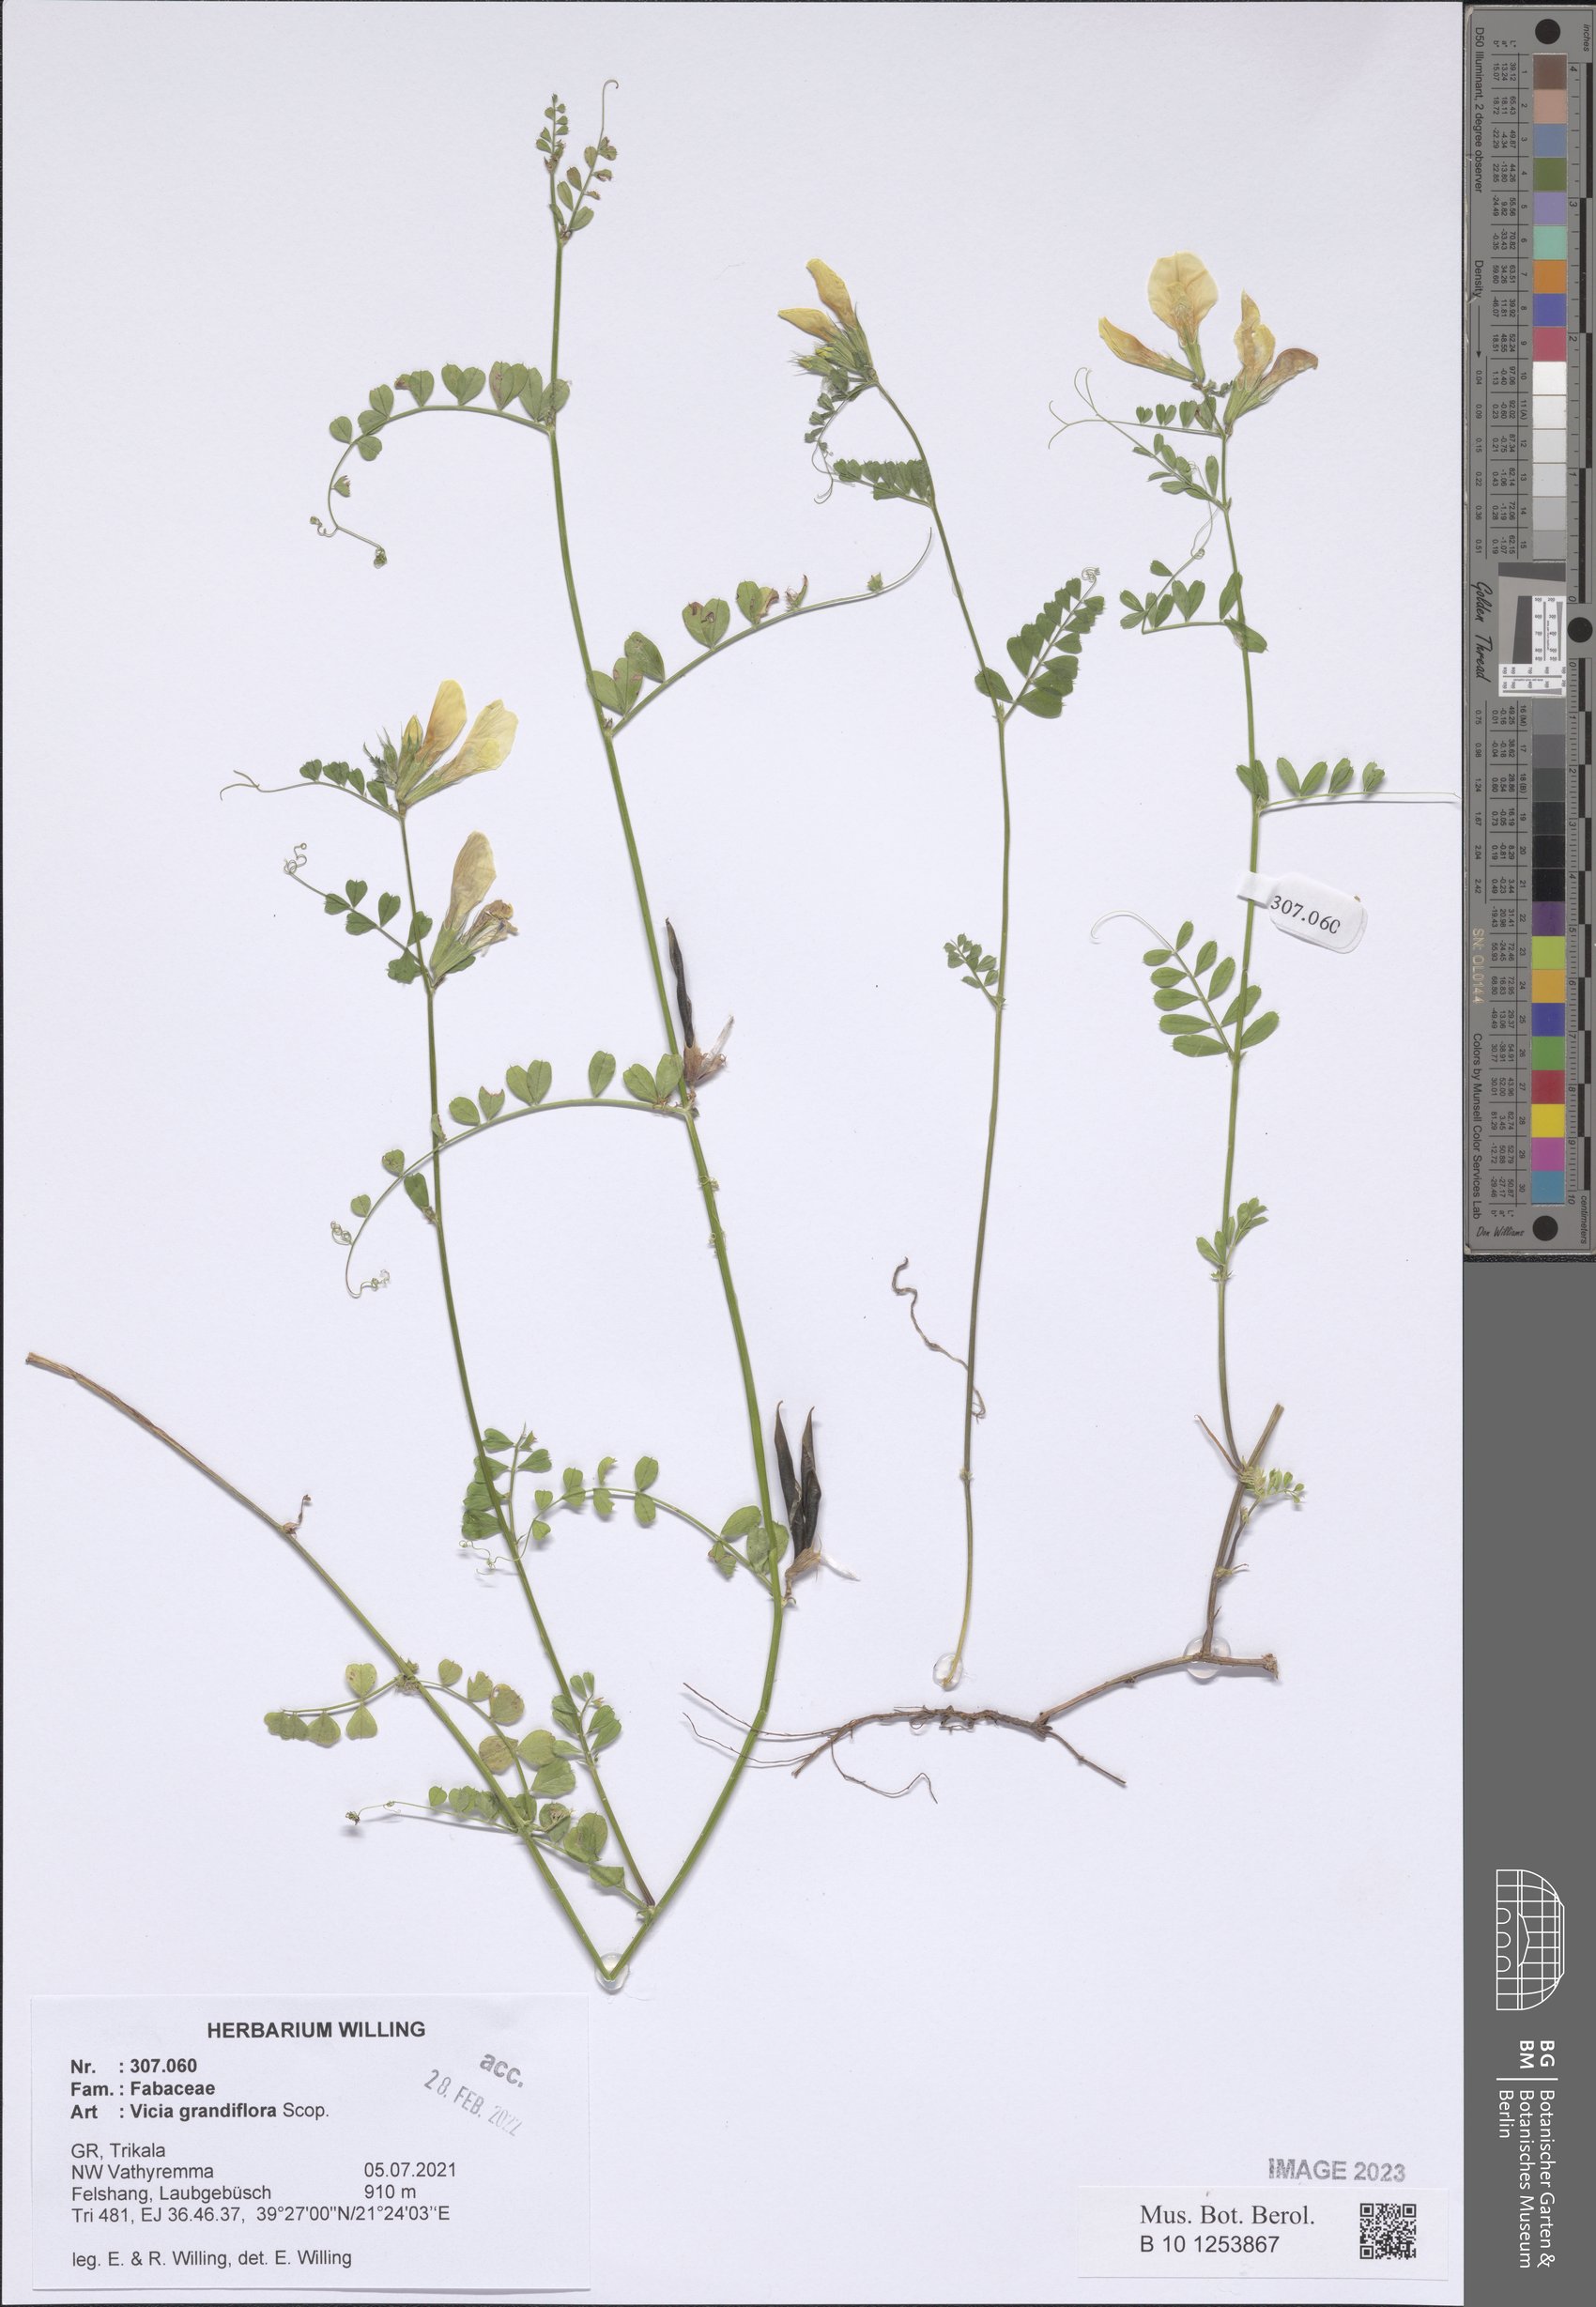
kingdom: Plantae
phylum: Tracheophyta
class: Magnoliopsida
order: Fabales
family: Fabaceae
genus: Vicia
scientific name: Vicia grandiflora
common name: Large yellow vetch
